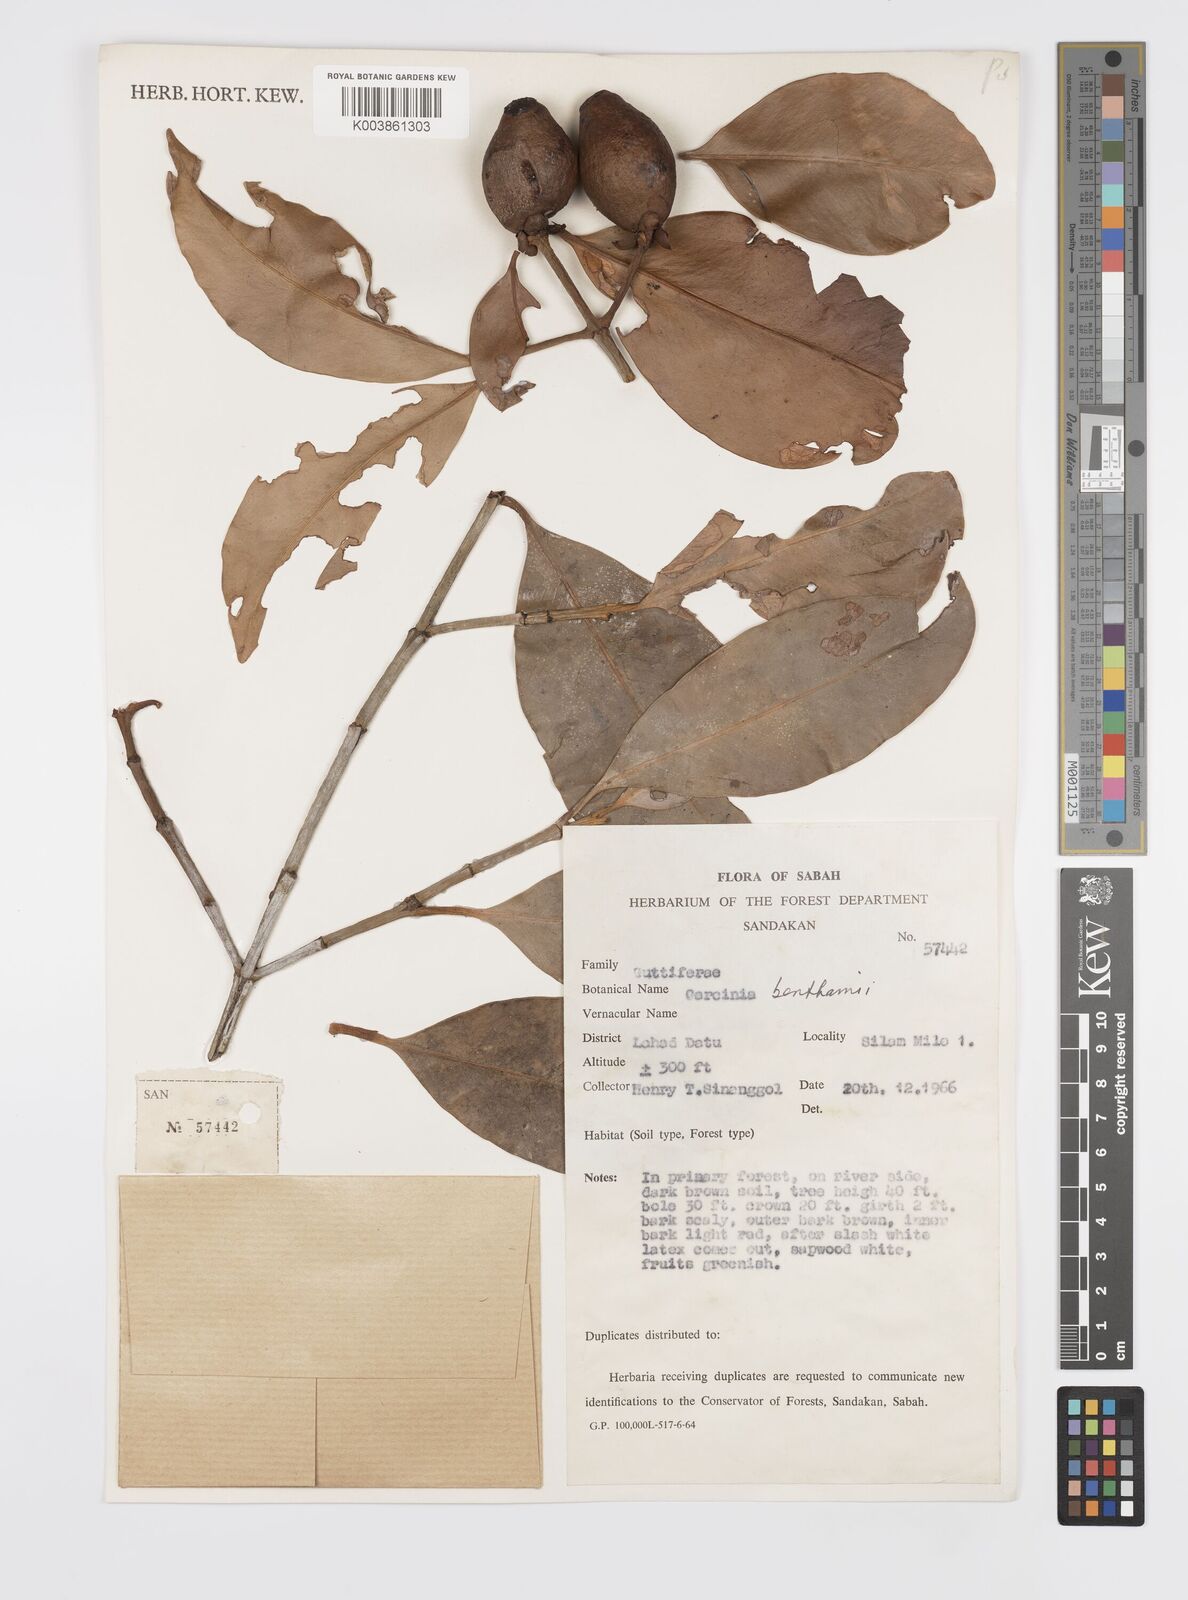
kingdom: Plantae
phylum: Tracheophyta
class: Magnoliopsida
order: Malpighiales
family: Clusiaceae
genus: Garcinia
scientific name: Garcinia sangudsangud
